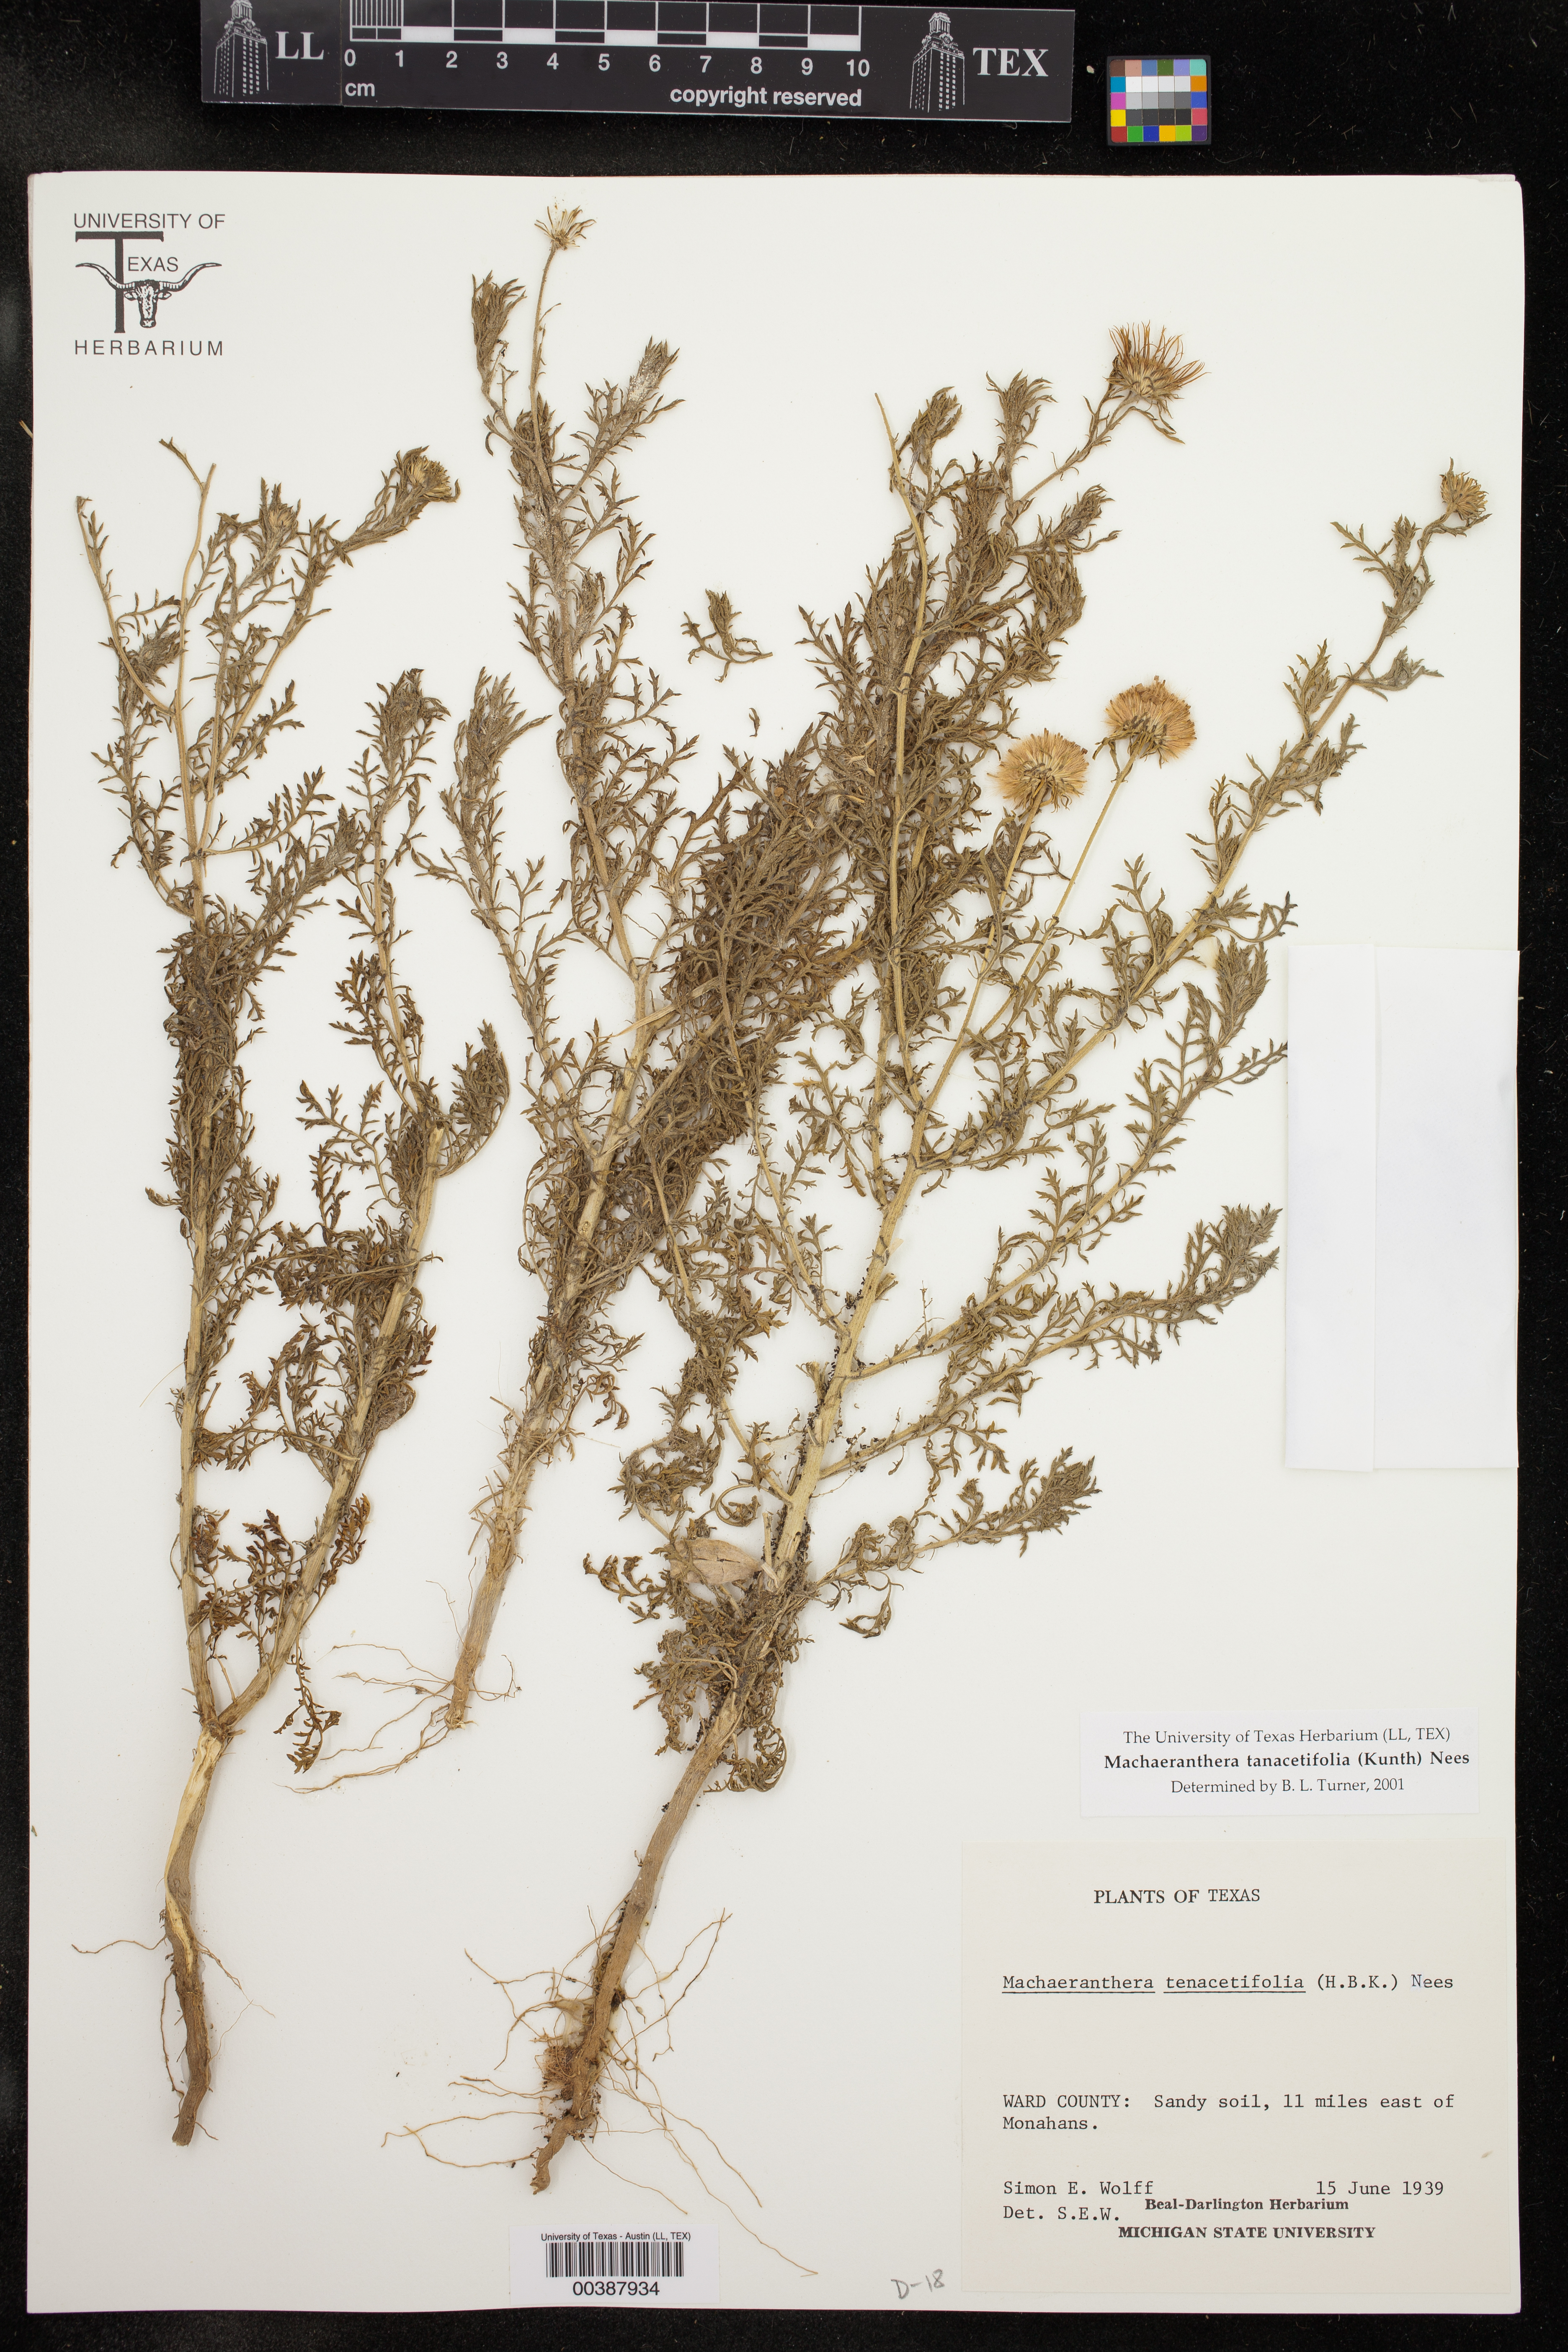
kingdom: Plantae
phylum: Tracheophyta
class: Magnoliopsida
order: Asterales
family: Asteraceae
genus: Machaeranthera
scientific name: Machaeranthera tanacetifolia
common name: Tansy-aster
